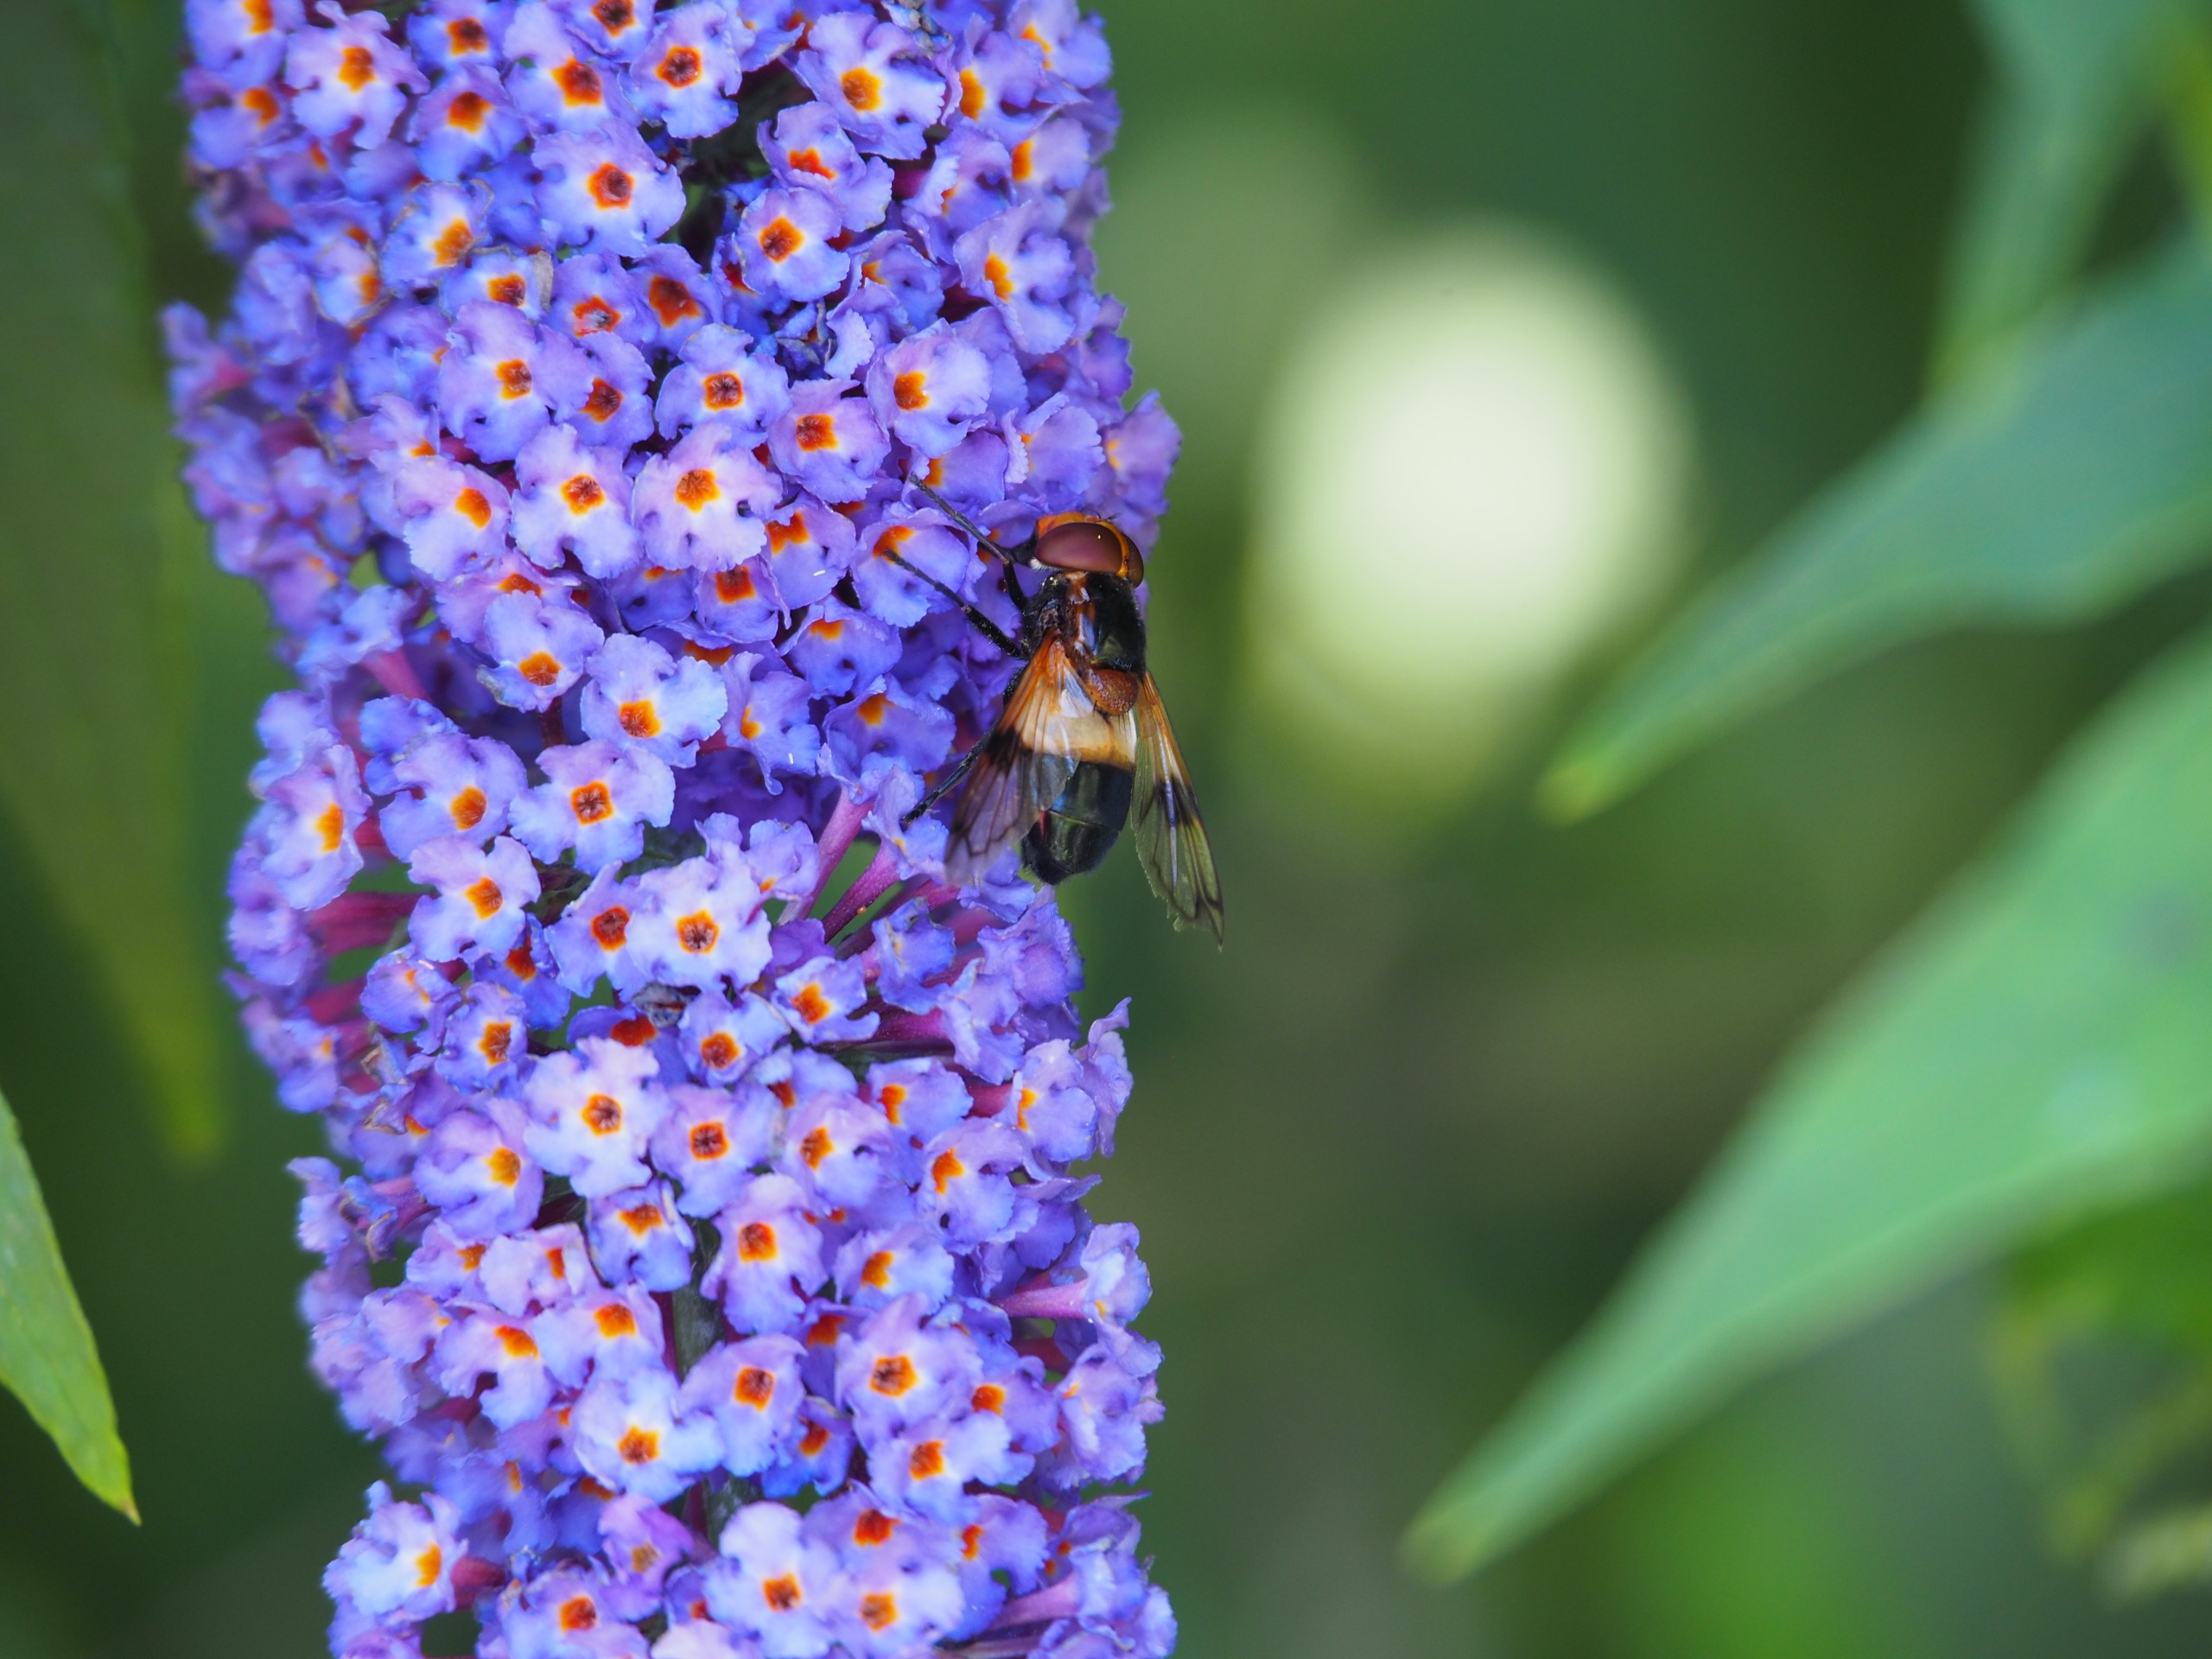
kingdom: Animalia
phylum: Arthropoda
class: Insecta
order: Diptera
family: Syrphidae
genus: Volucella
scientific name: Volucella pellucens
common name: Hvidbåndet humlesvirreflue
